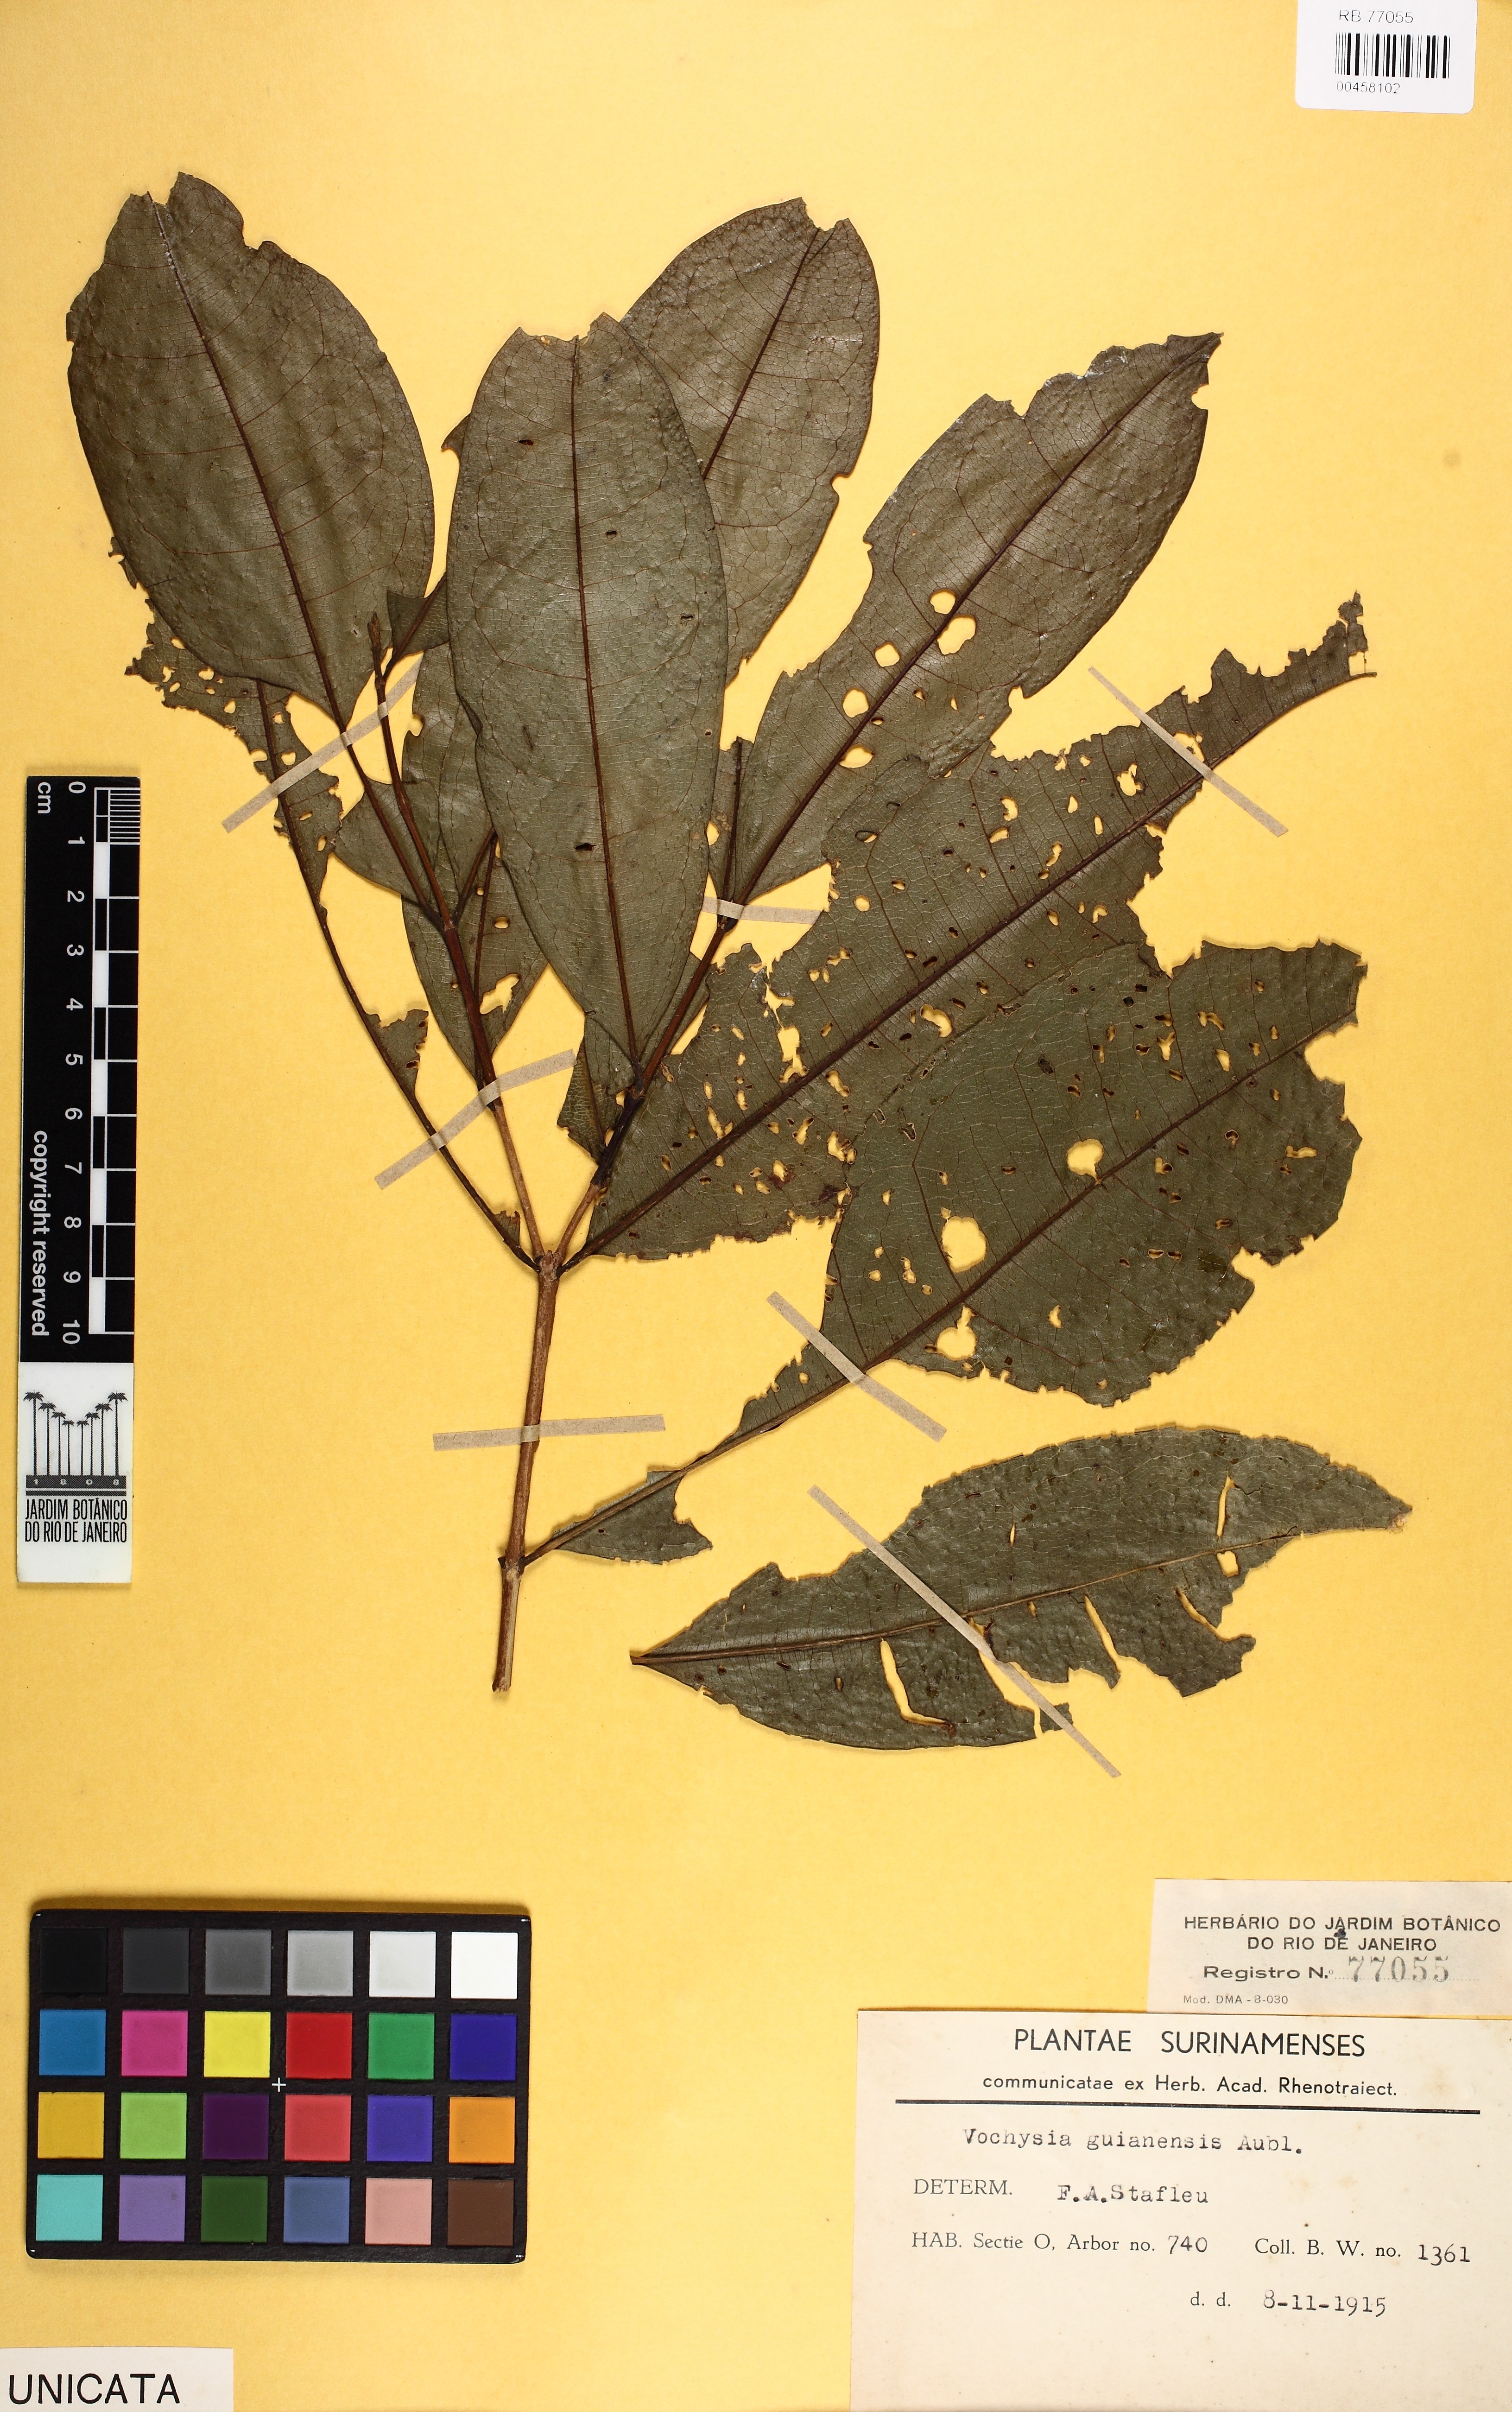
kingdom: Plantae
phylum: Tracheophyta
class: Magnoliopsida
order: Myrtales
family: Vochysiaceae
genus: Vochysia
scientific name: Vochysia guianensis
